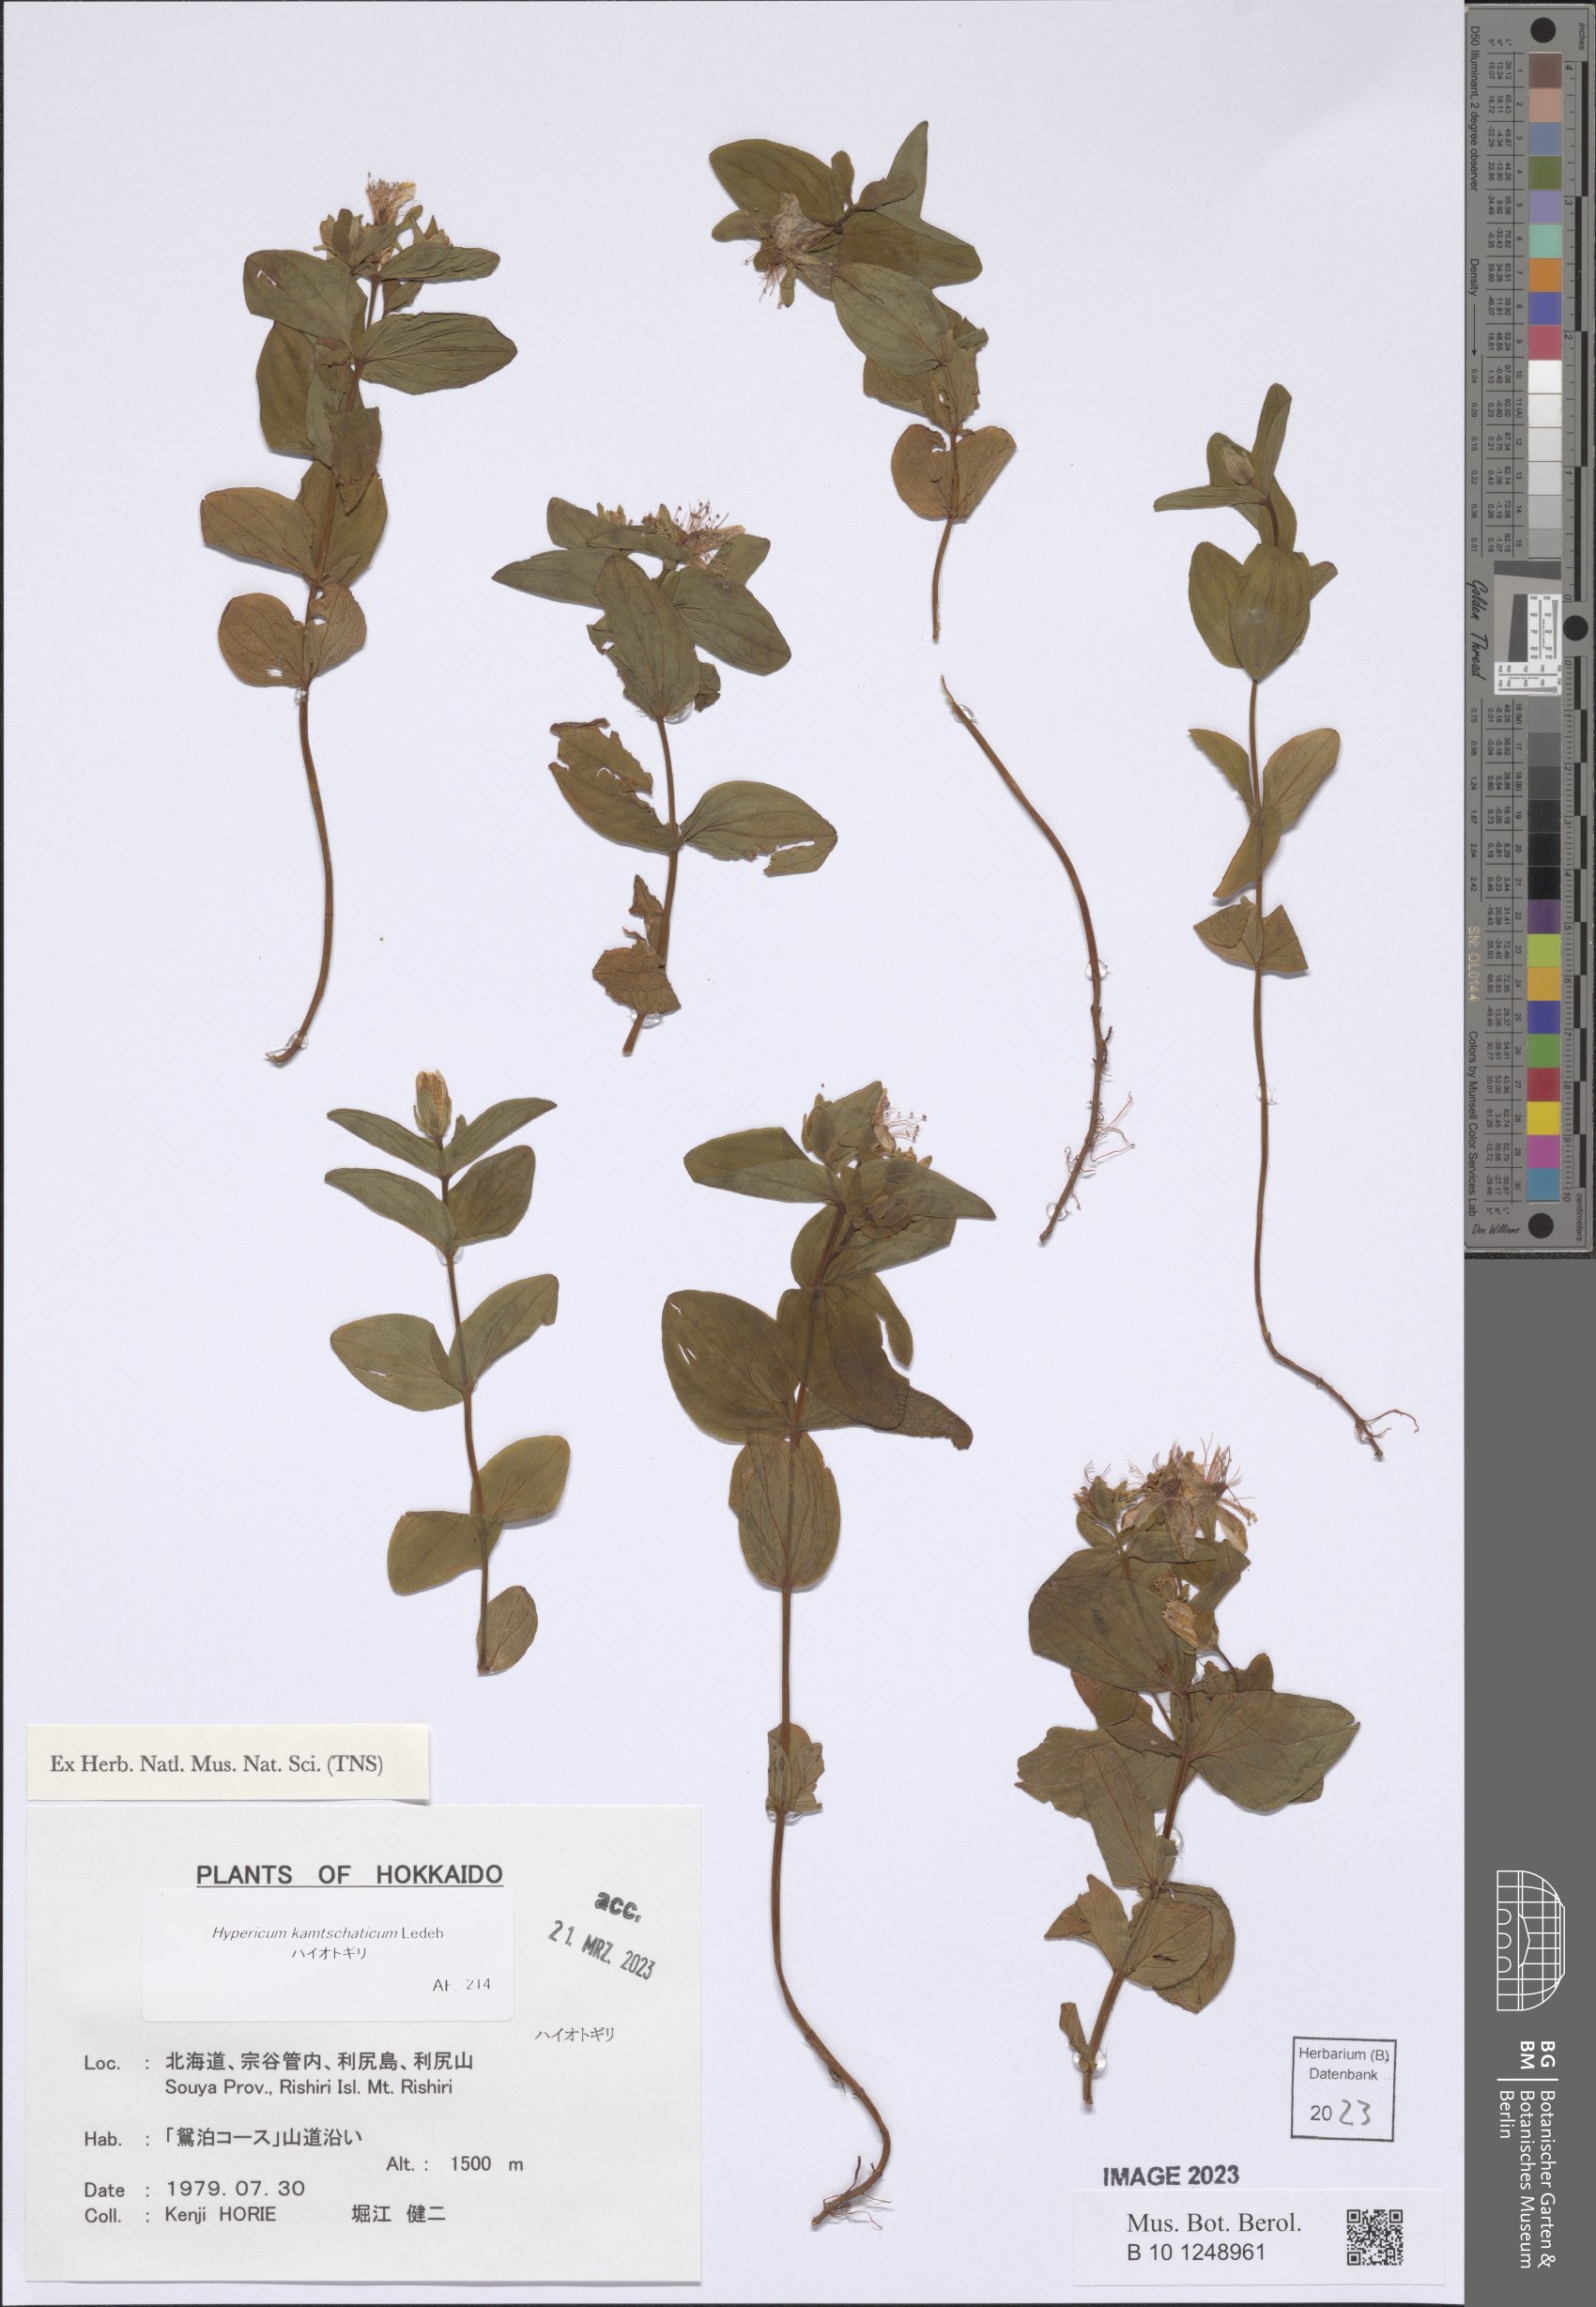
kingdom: Plantae
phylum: Tracheophyta
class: Magnoliopsida
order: Malpighiales
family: Hypericaceae
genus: Hypericum
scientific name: Hypericum kamtschaticum
